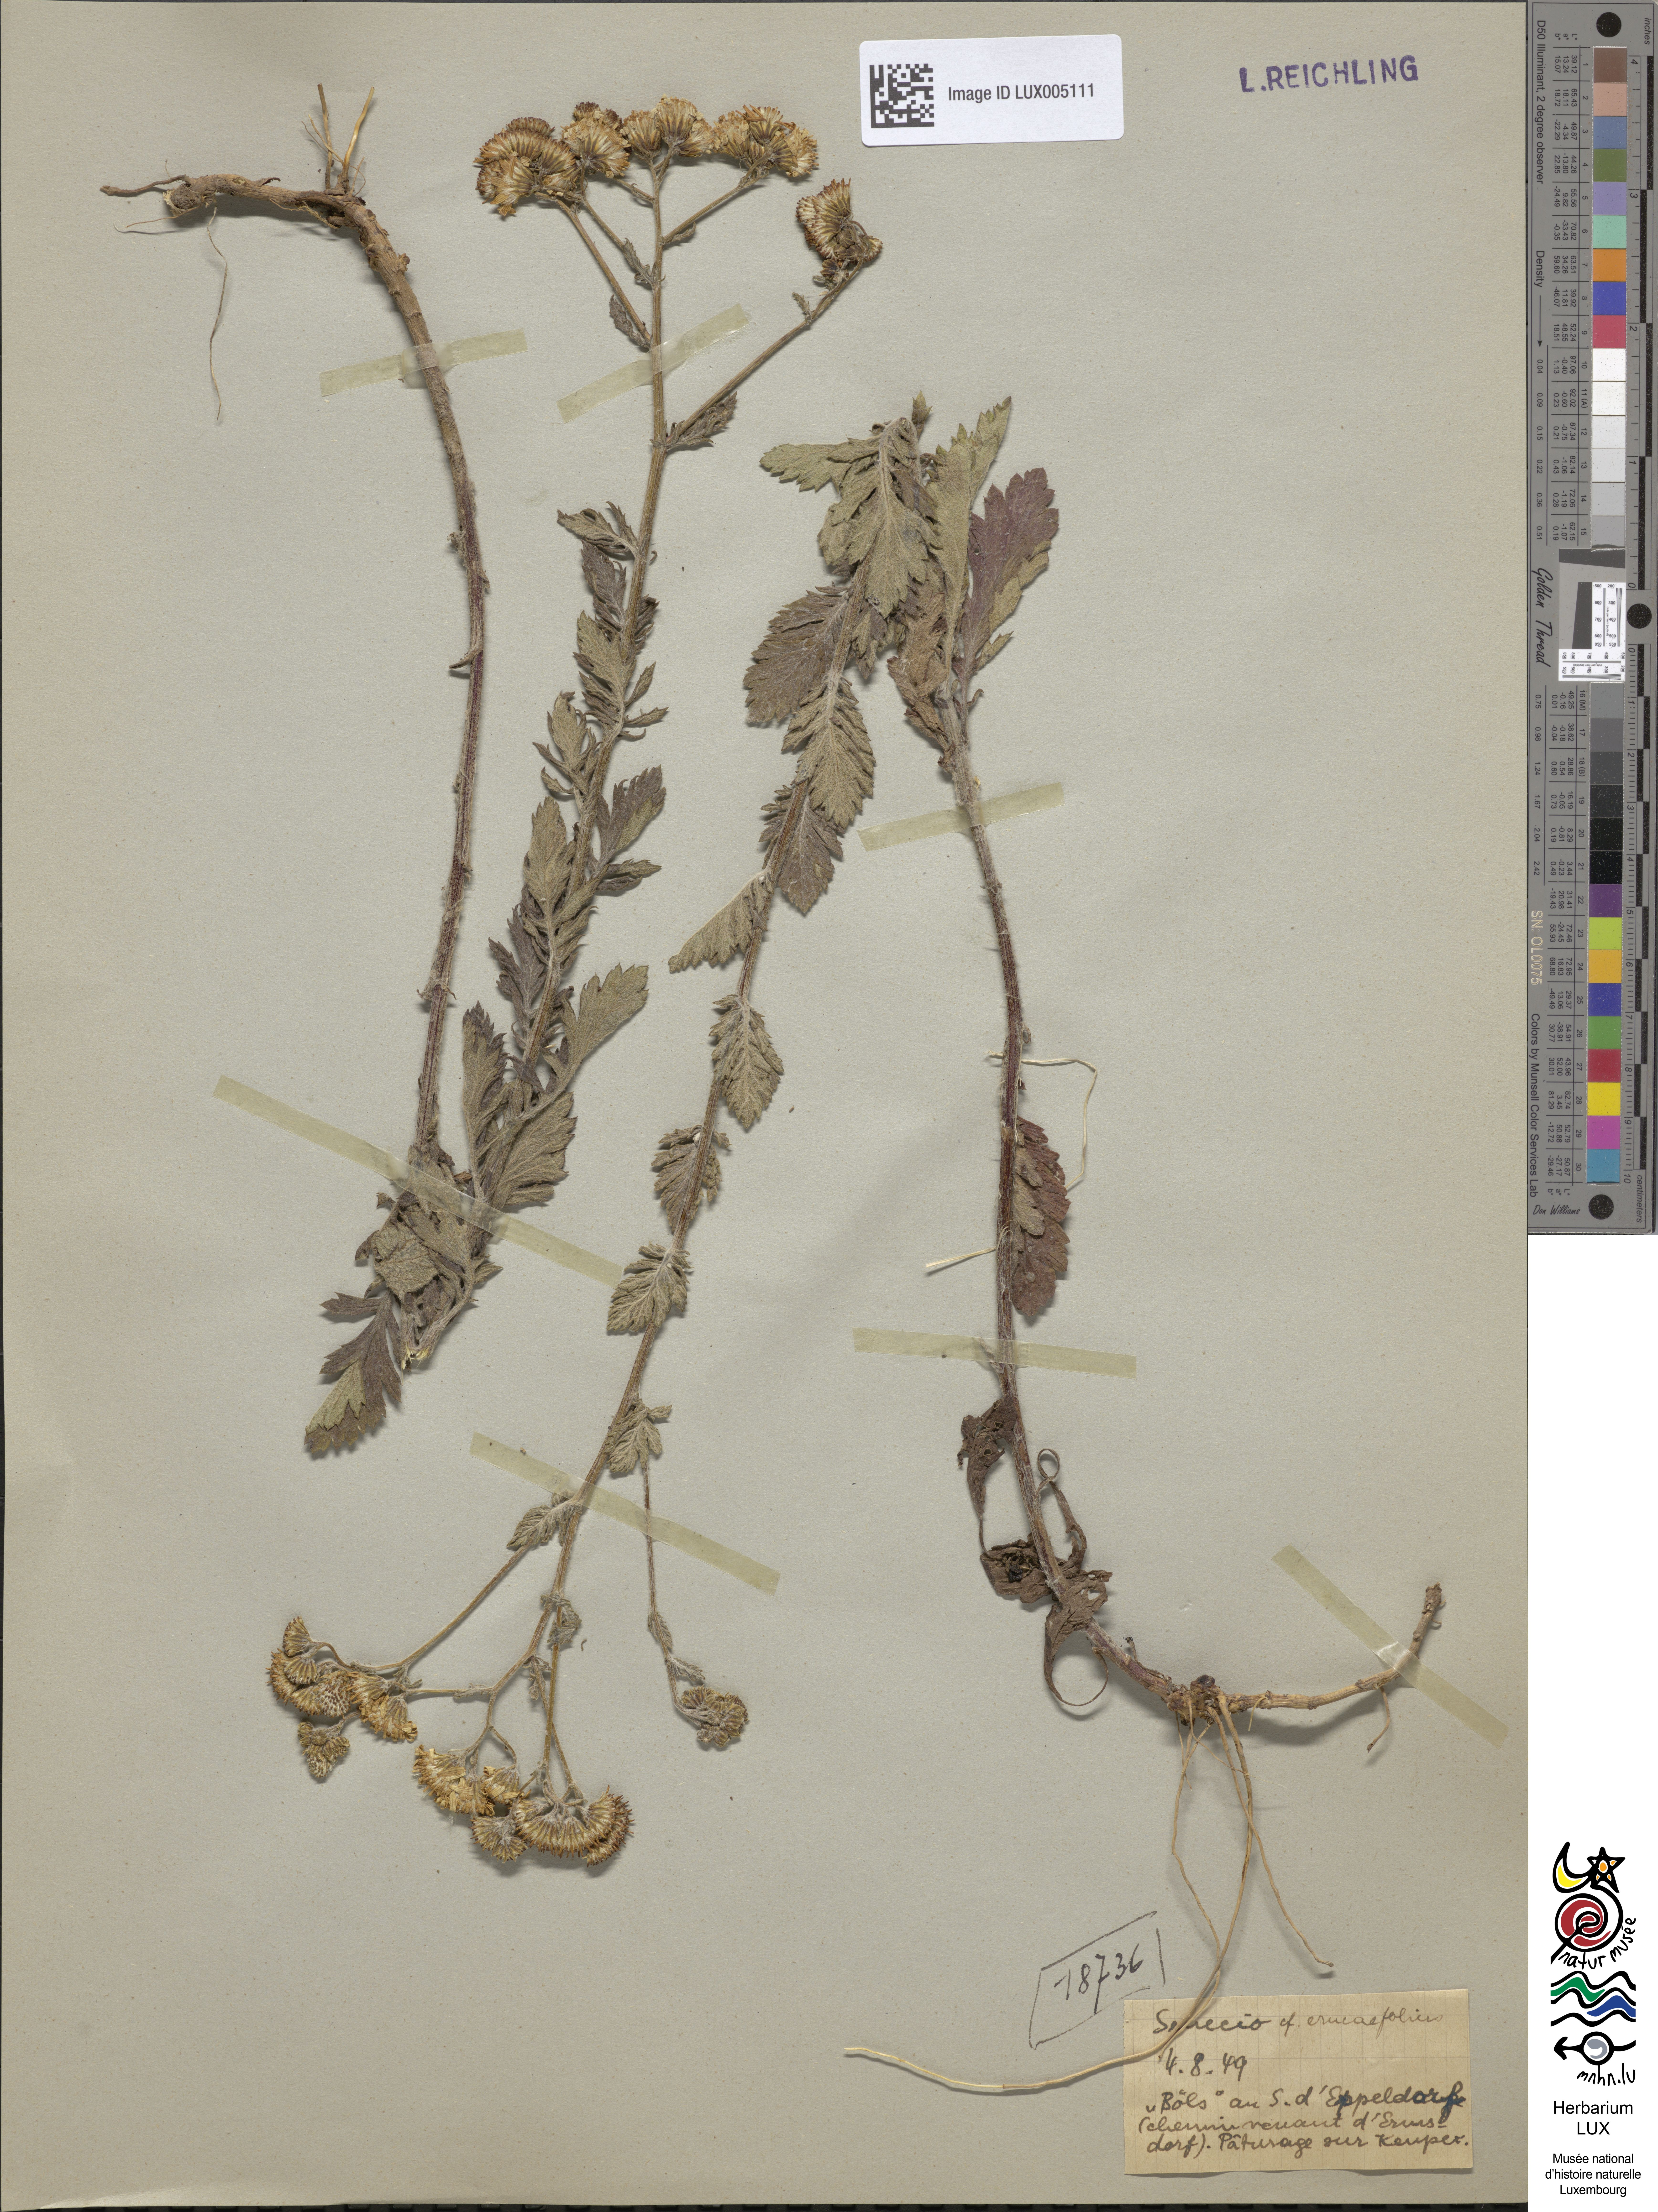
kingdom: Plantae
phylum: Tracheophyta
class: Magnoliopsida
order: Asterales
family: Asteraceae
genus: Jacobaea
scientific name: Jacobaea erucifolia
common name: Hoary ragwort
